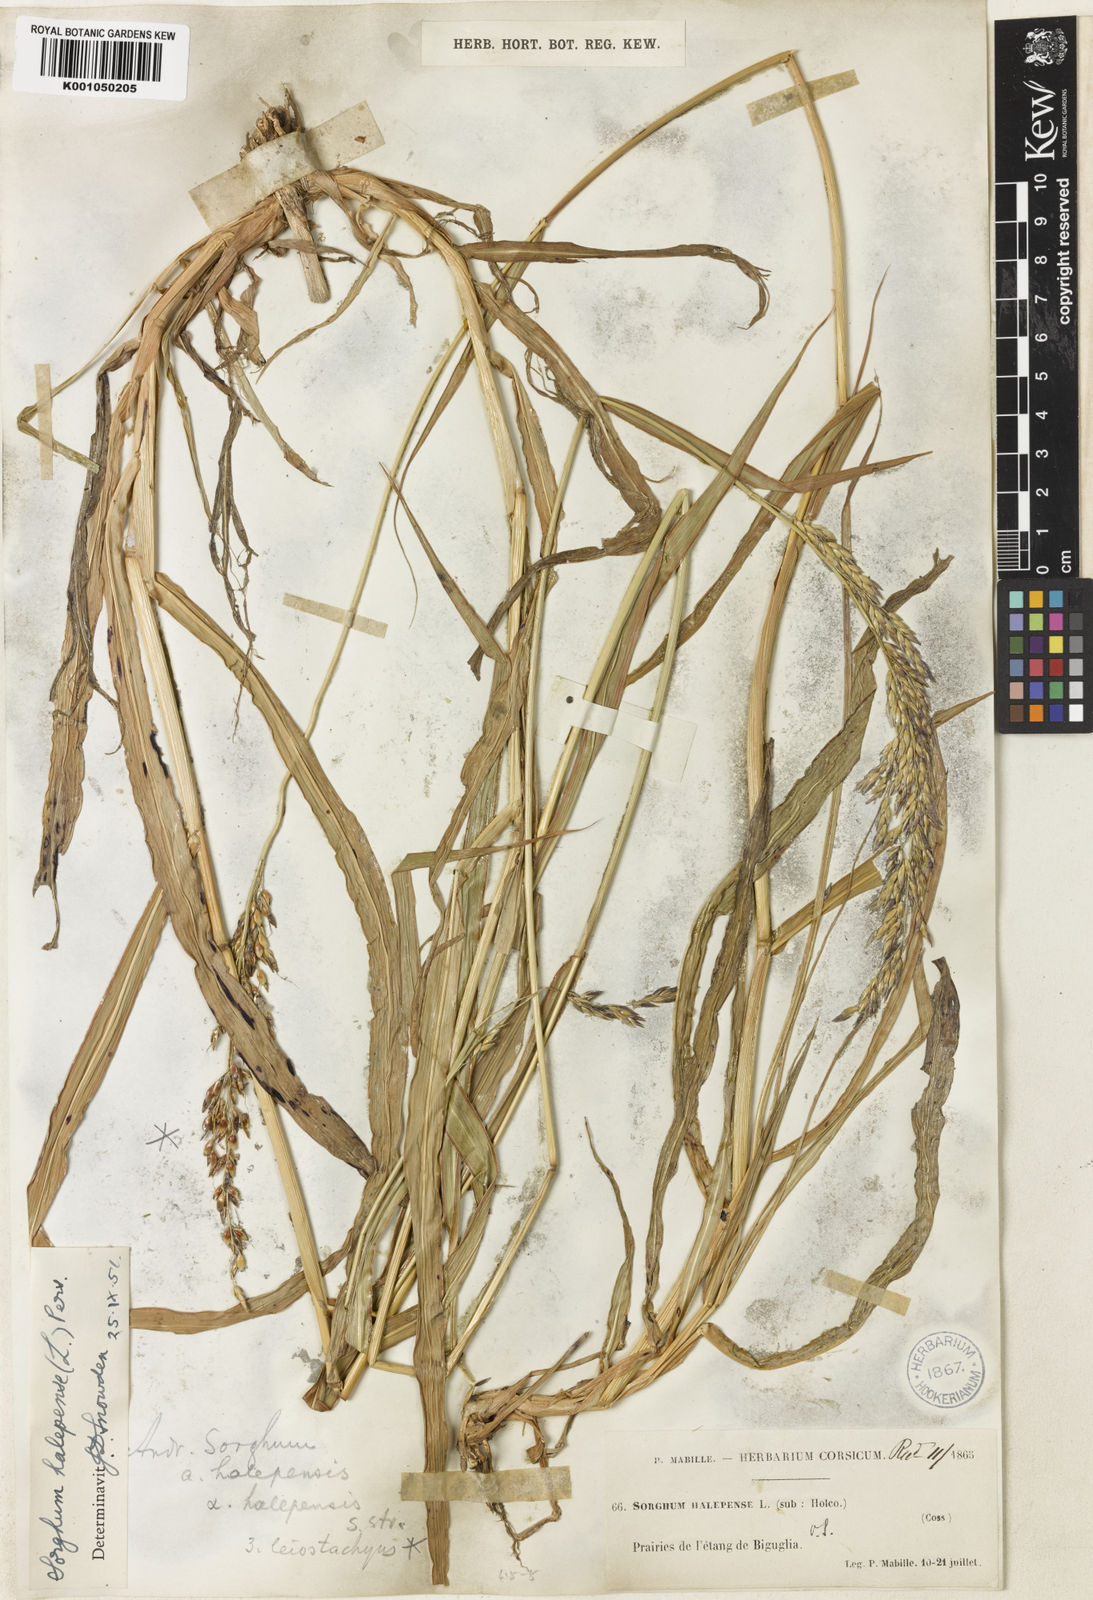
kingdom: Plantae
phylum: Tracheophyta
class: Liliopsida
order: Poales
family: Poaceae
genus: Sorghum
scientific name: Sorghum halepense
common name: Johnson-grass
